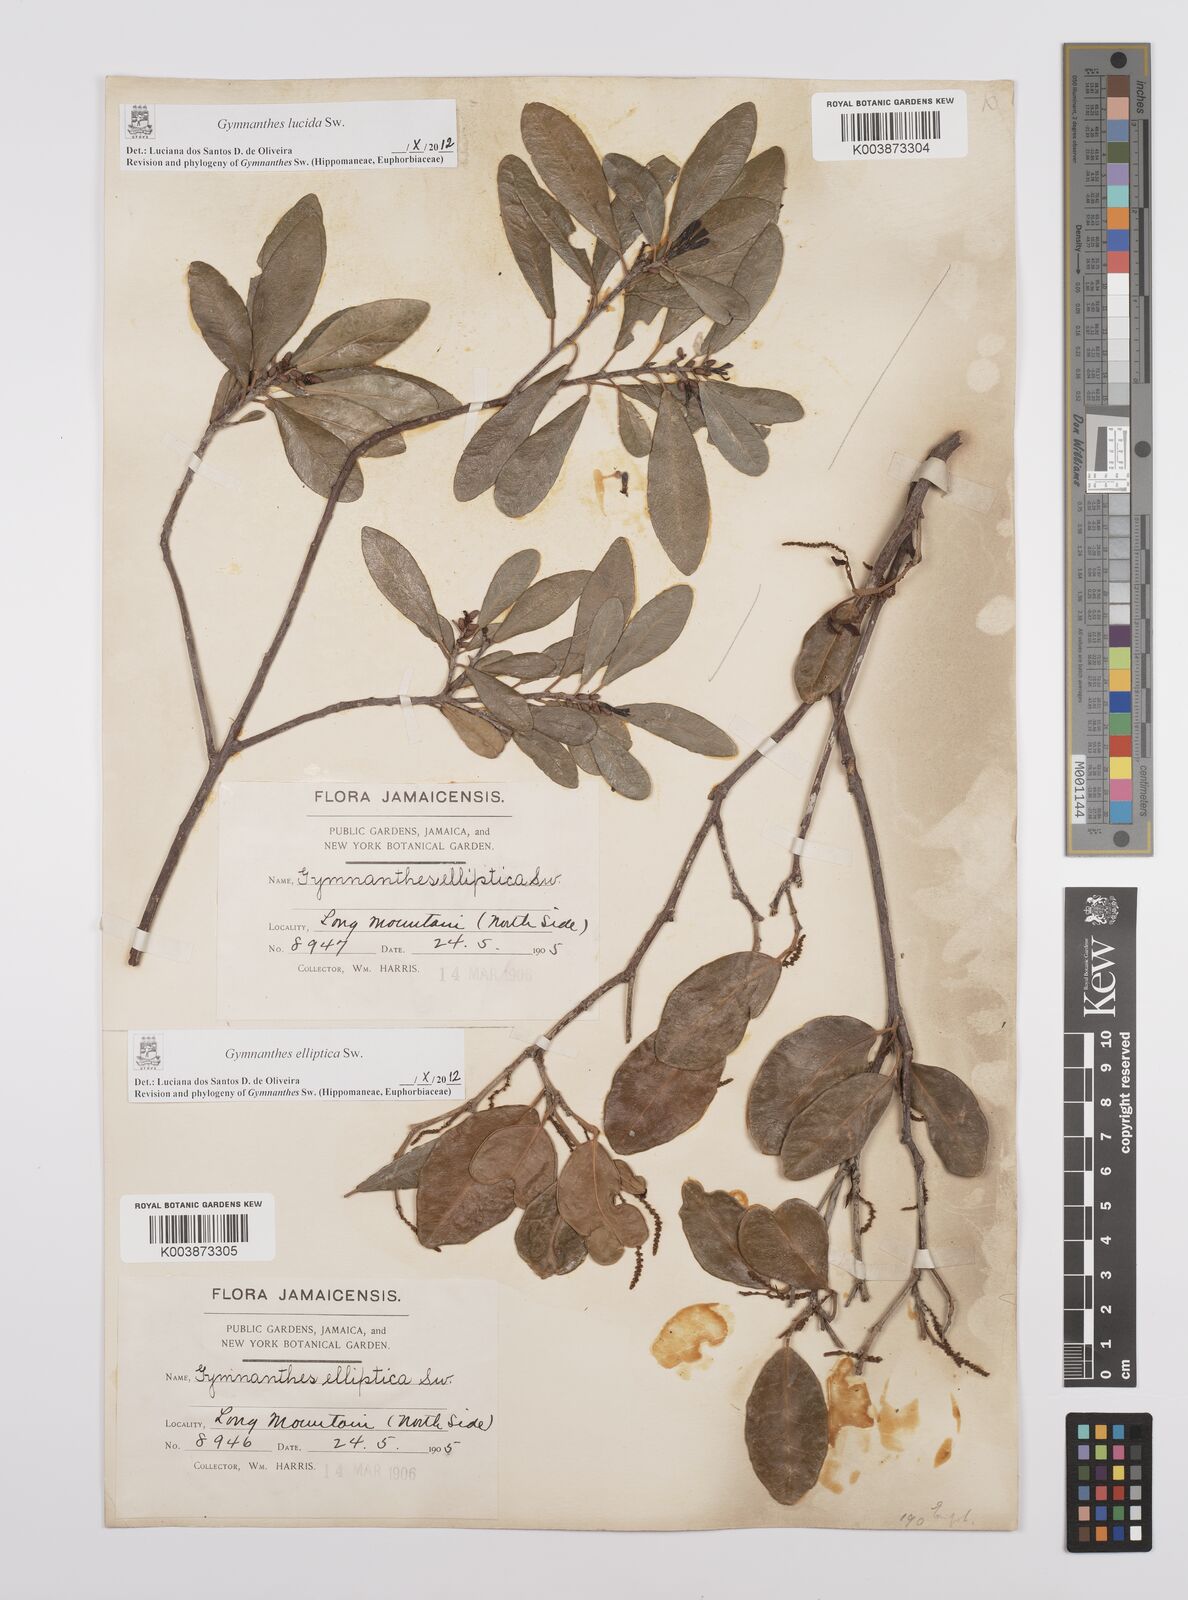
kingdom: Plantae
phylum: Tracheophyta
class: Magnoliopsida
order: Malpighiales
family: Euphorbiaceae
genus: Dendrocousinsia
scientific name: Dendrocousinsia elliptica
